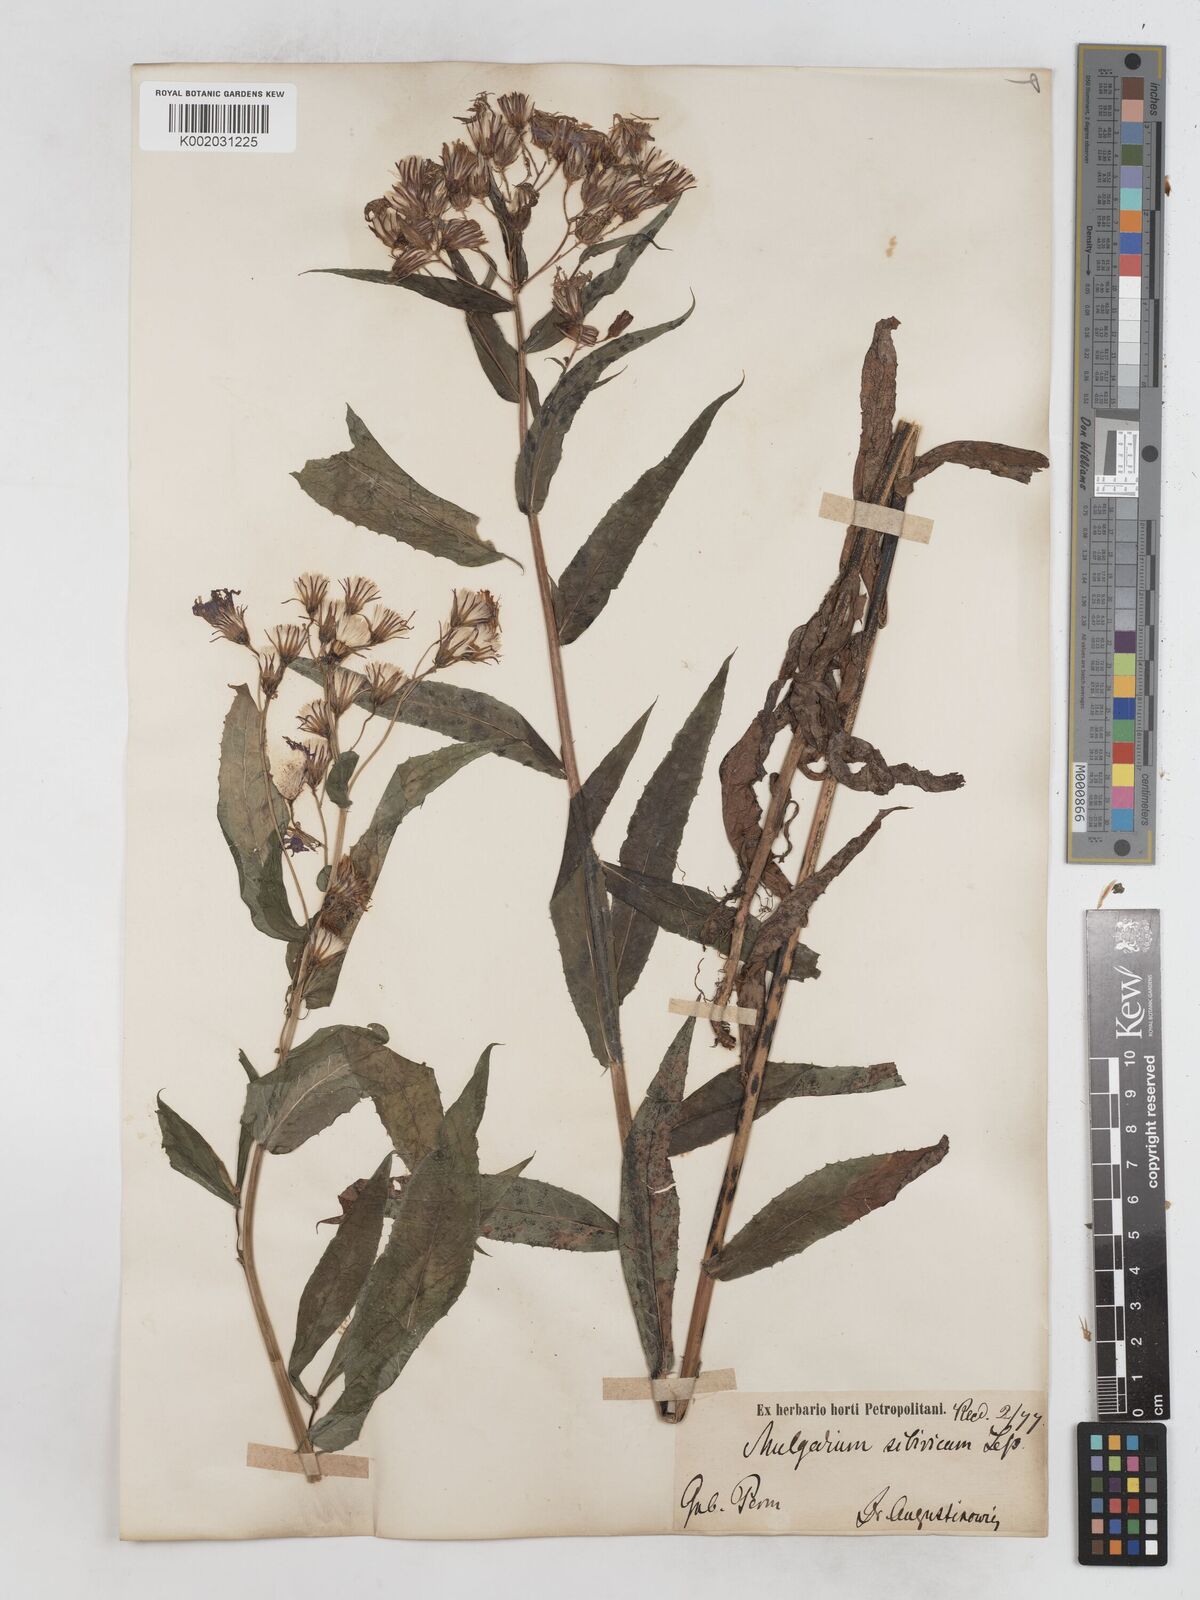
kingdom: Plantae
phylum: Tracheophyta
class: Magnoliopsida
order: Asterales
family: Asteraceae
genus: Lactuca
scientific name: Lactuca sibirica
